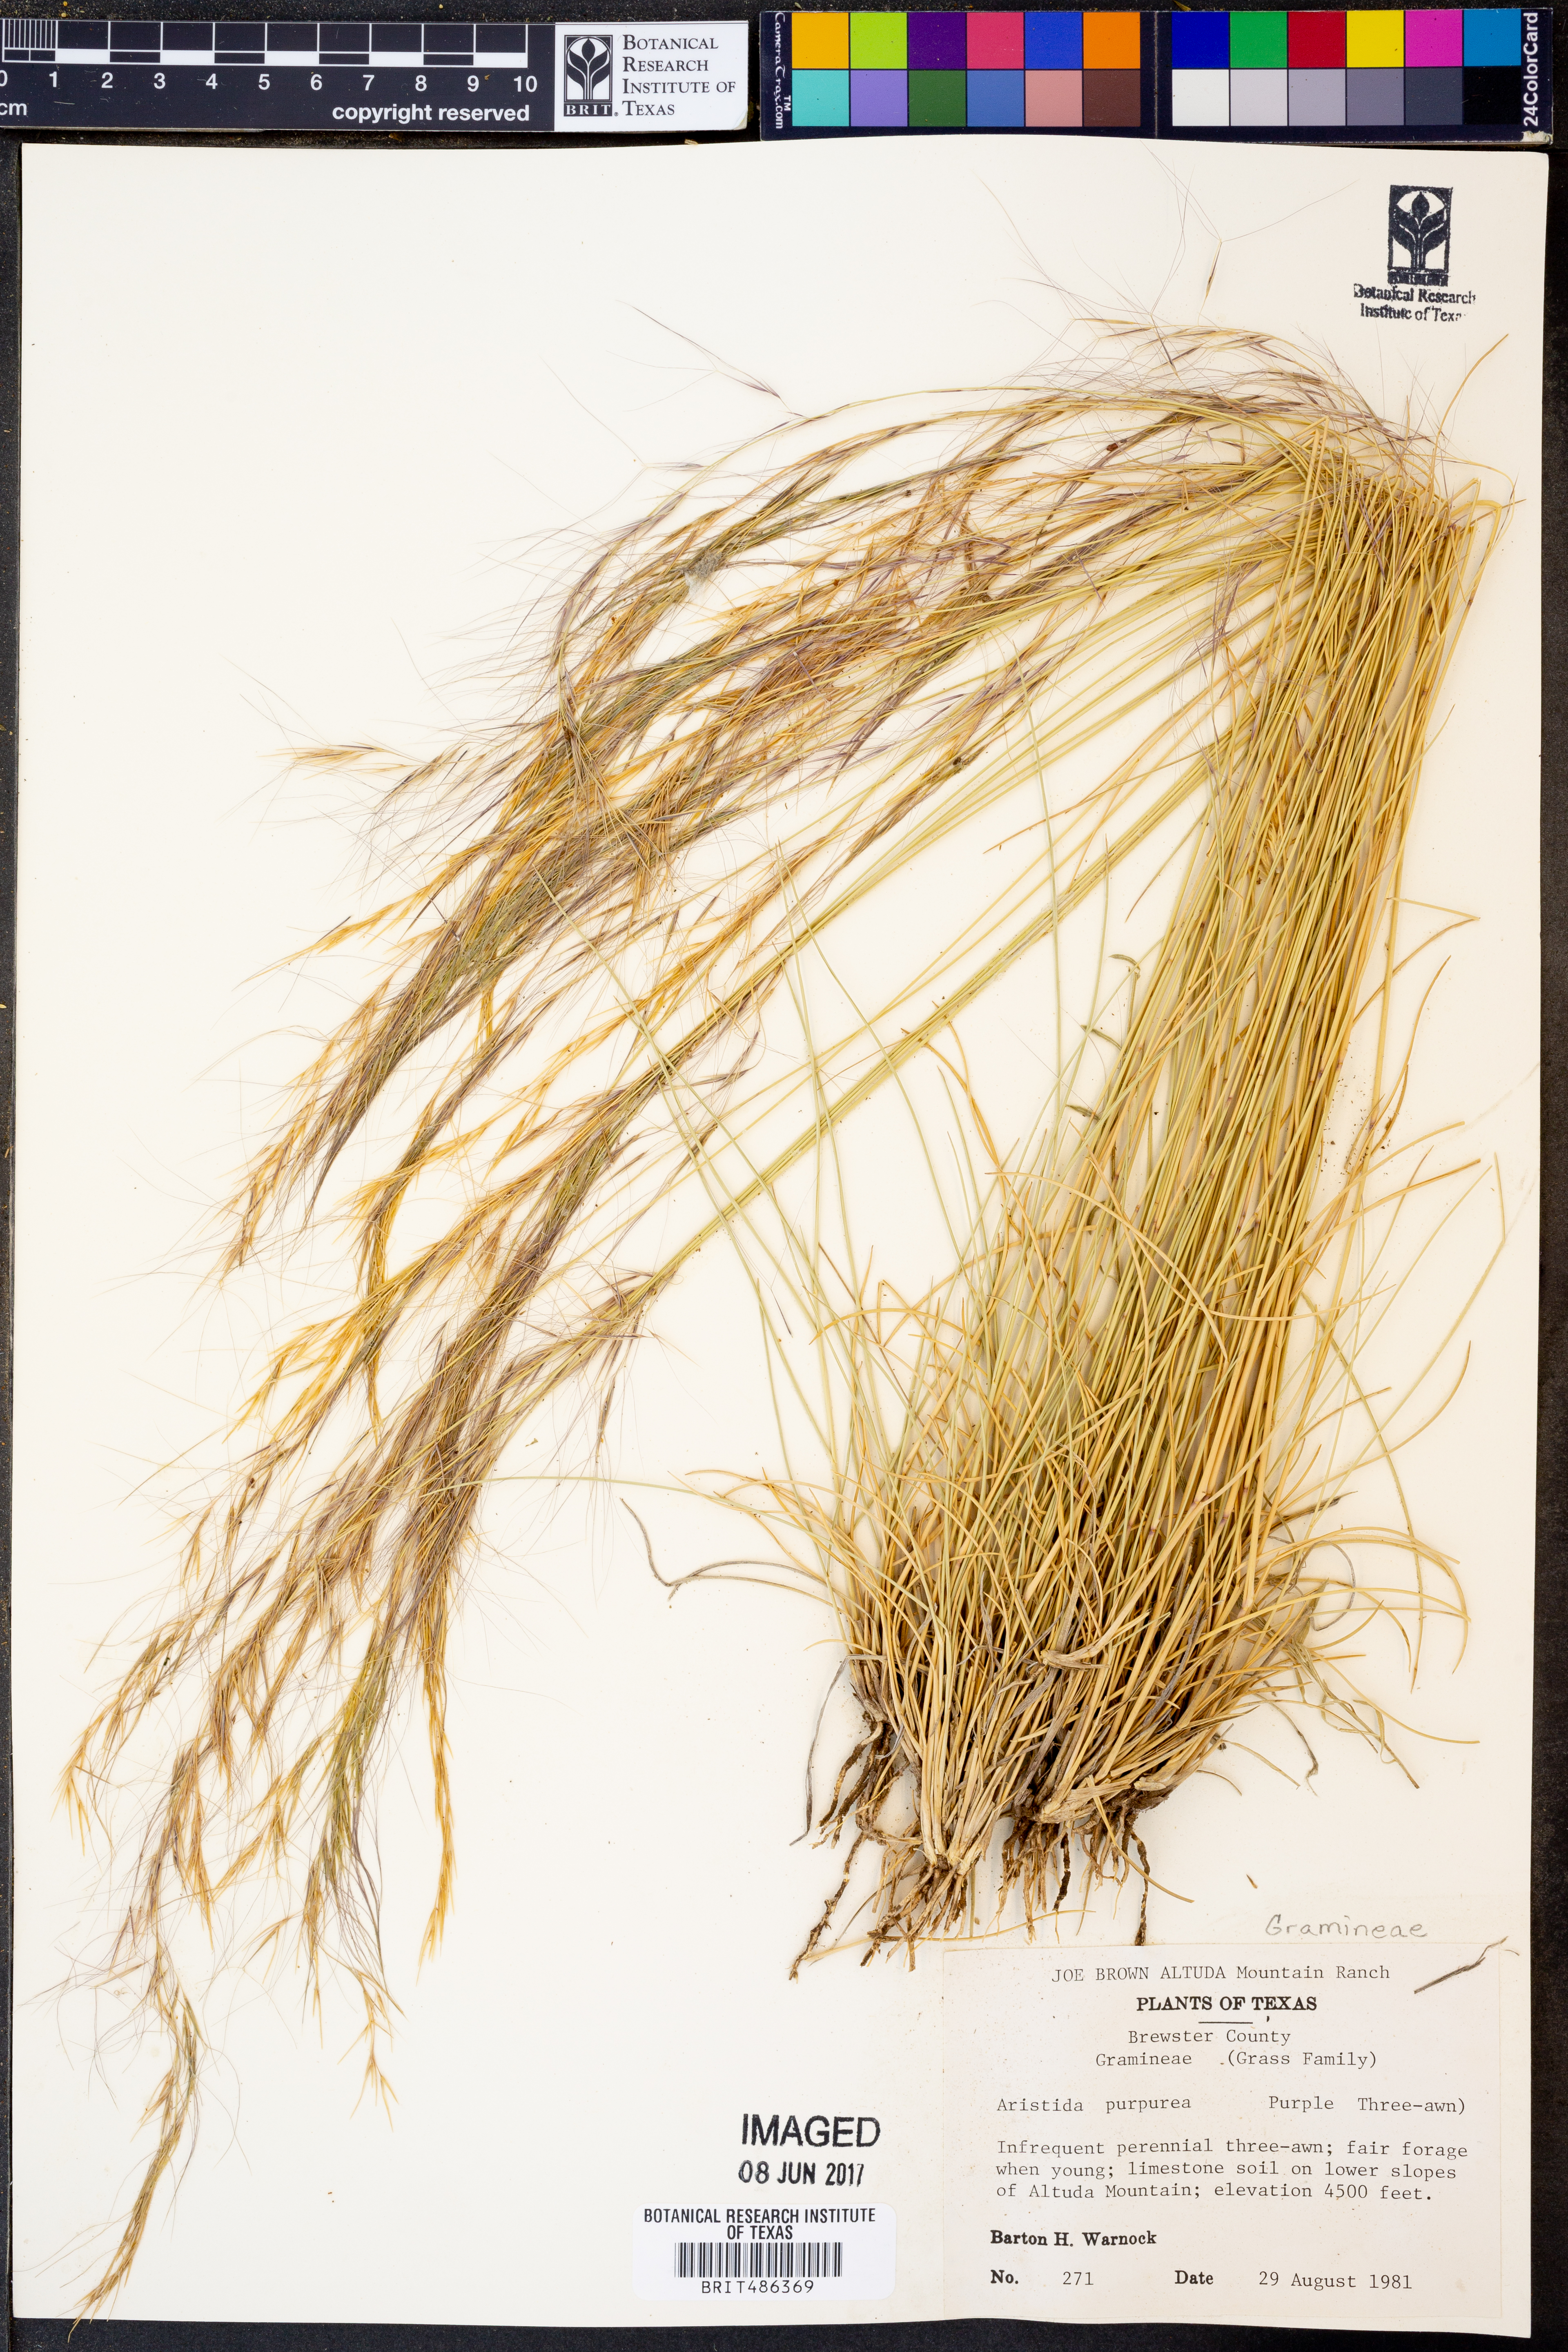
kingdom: Plantae
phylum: Tracheophyta
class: Liliopsida
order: Poales
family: Poaceae
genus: Aristida
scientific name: Aristida purpurea
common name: Purple threeawn
